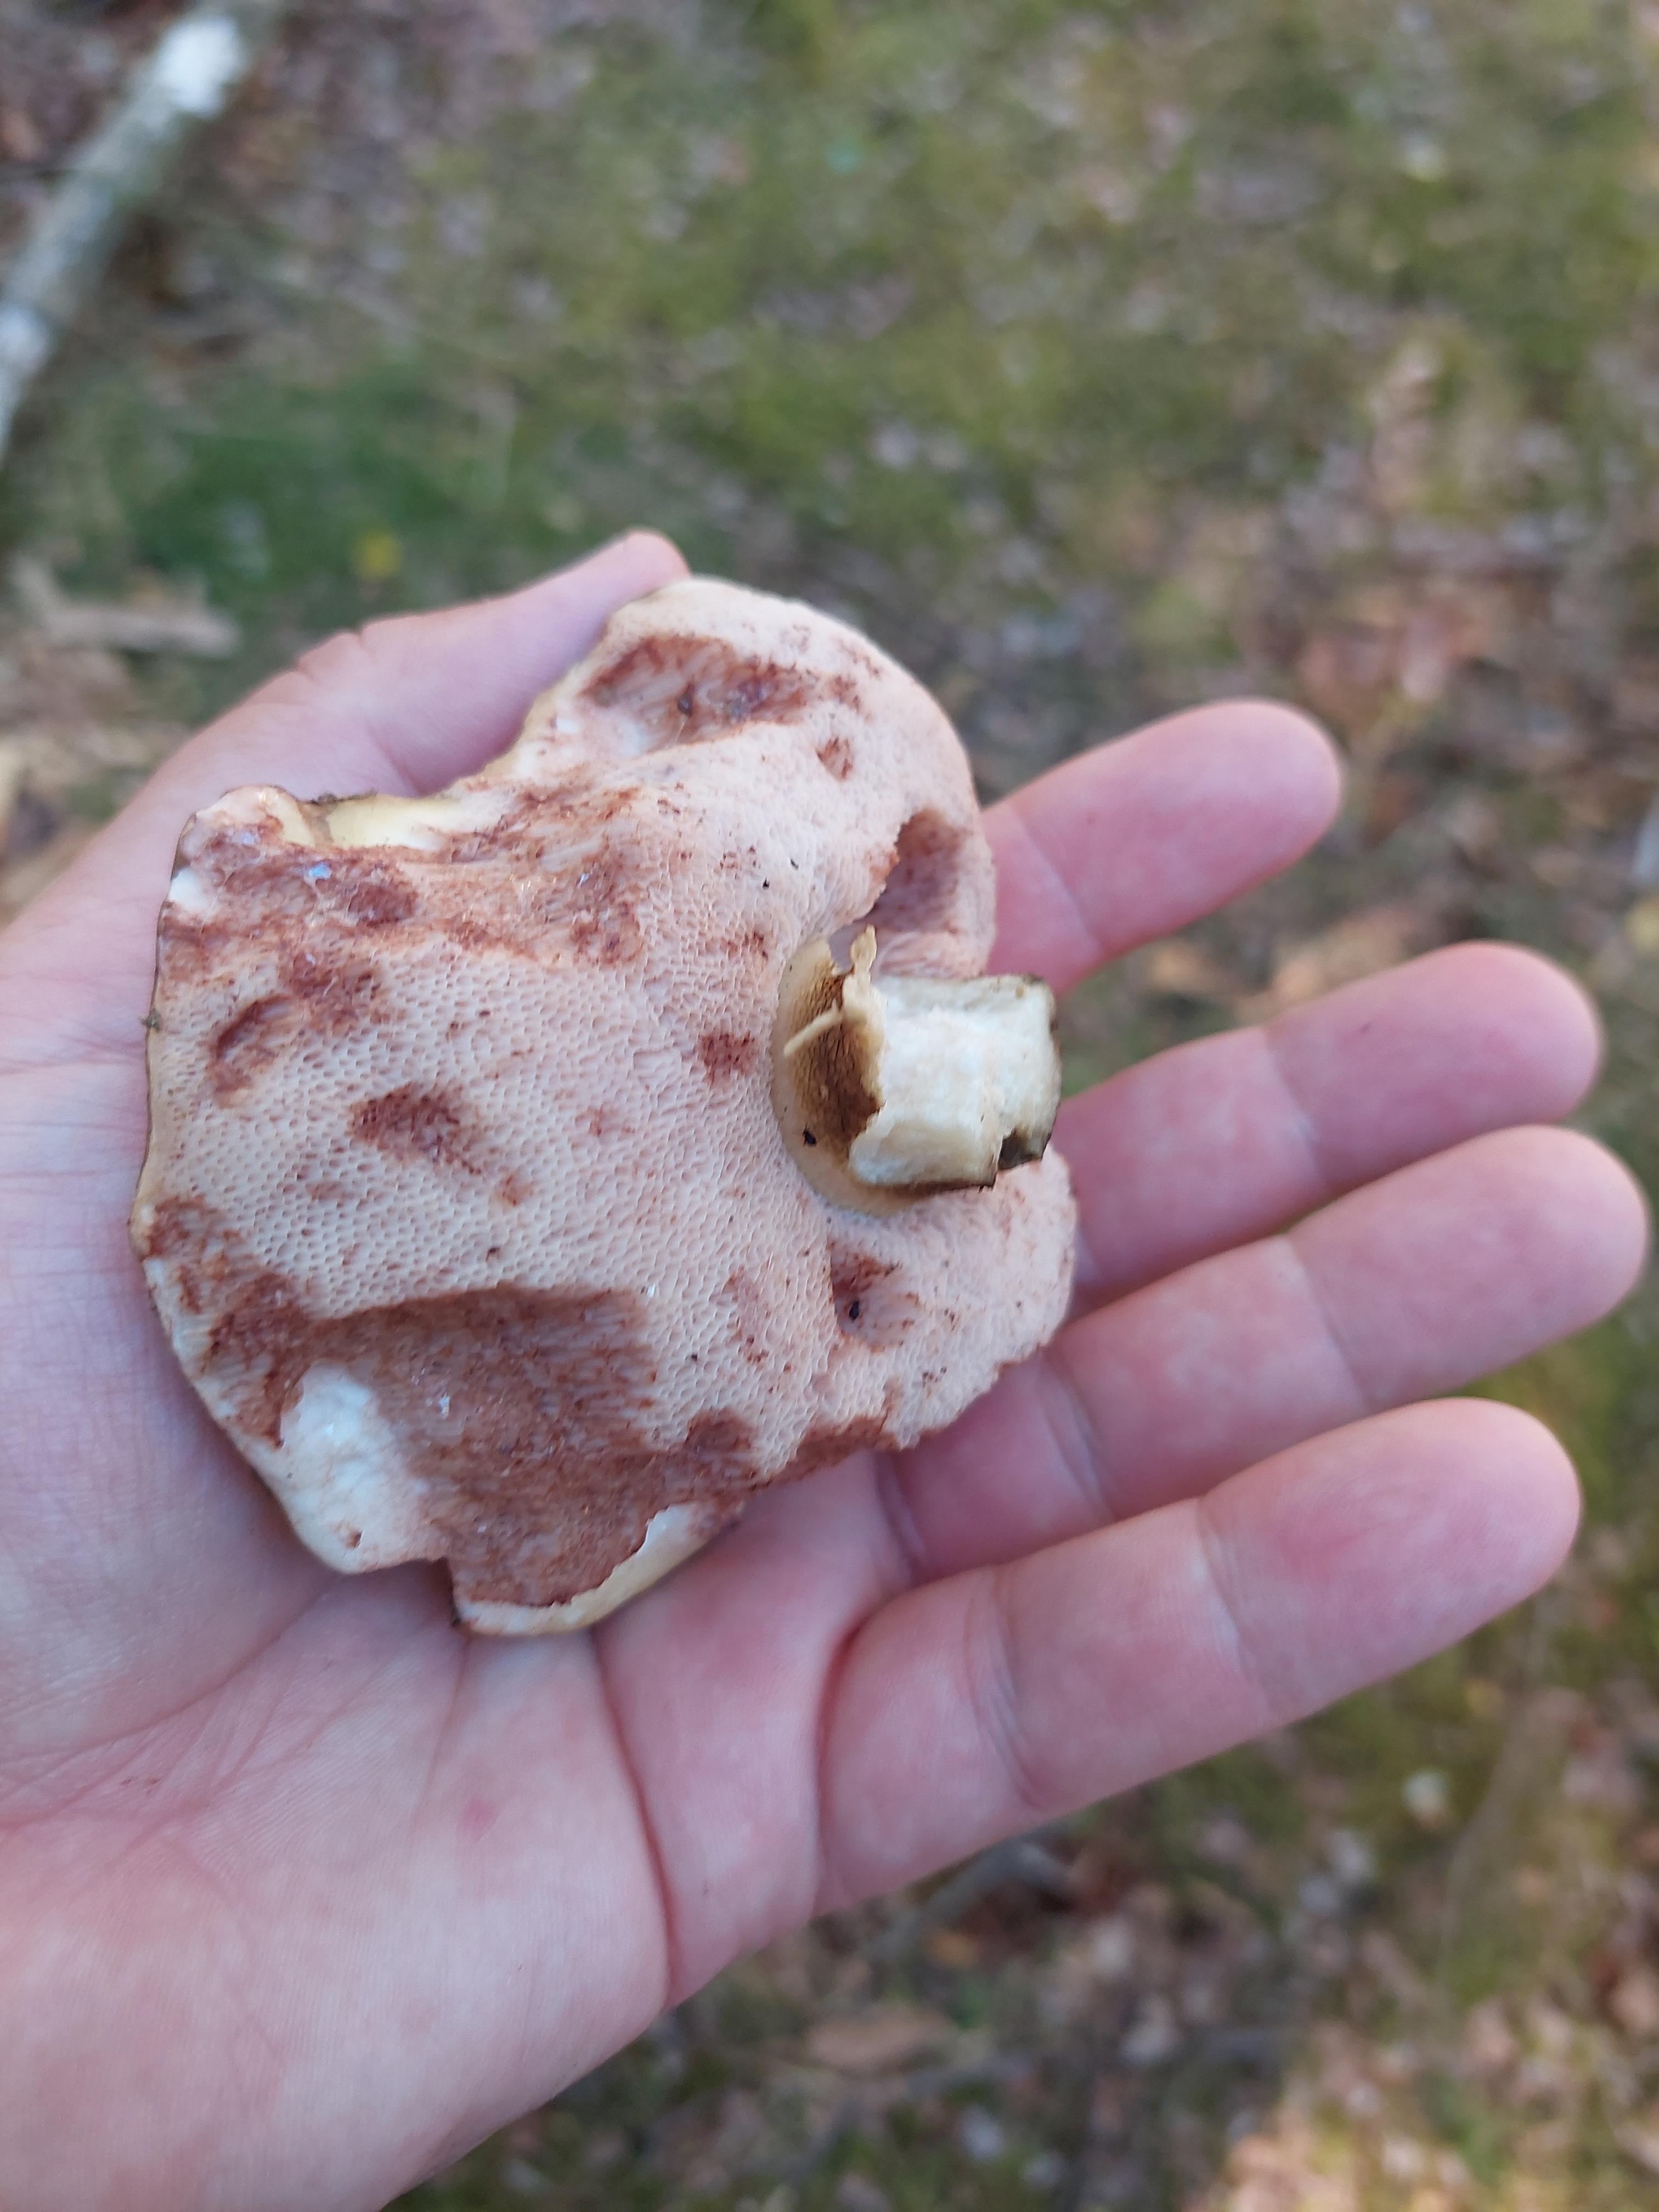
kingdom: Fungi
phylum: Basidiomycota
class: Agaricomycetes
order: Boletales
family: Boletaceae
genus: Imleria
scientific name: Imleria badia
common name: brunstokket rørhat
